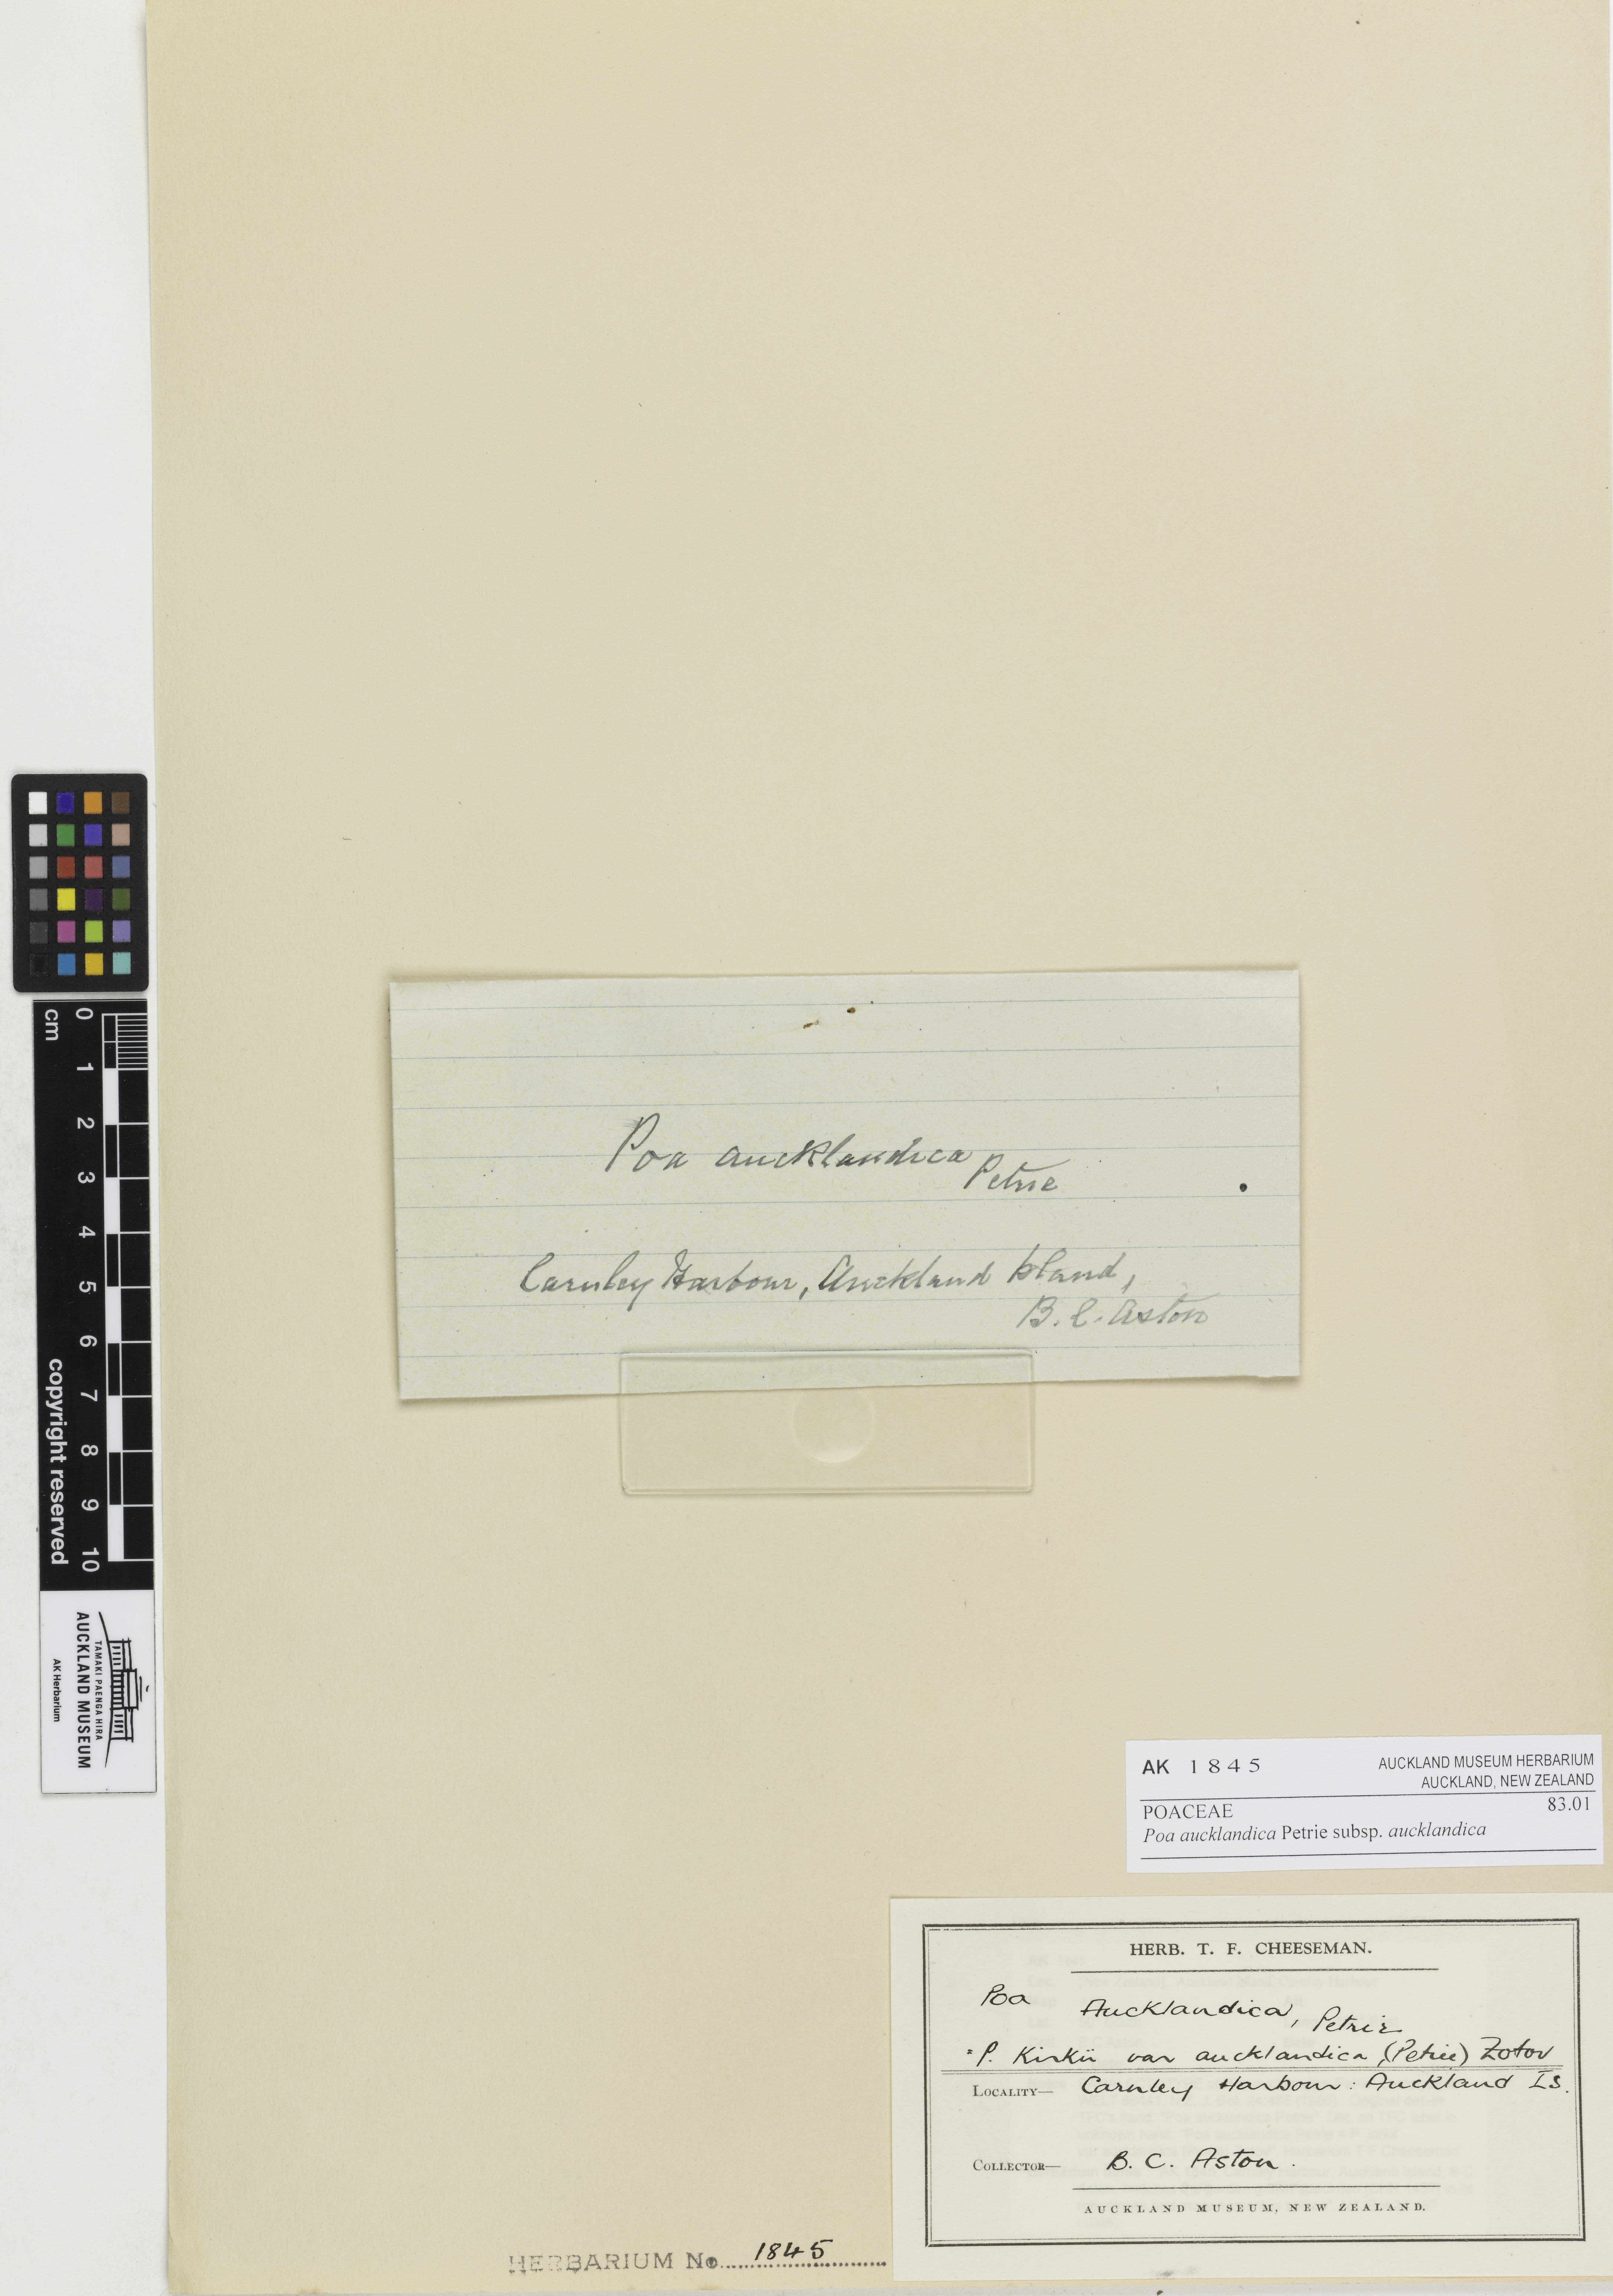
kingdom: Plantae
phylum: Tracheophyta
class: Liliopsida
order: Poales
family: Poaceae
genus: Poa
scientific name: Poa aucklandica
